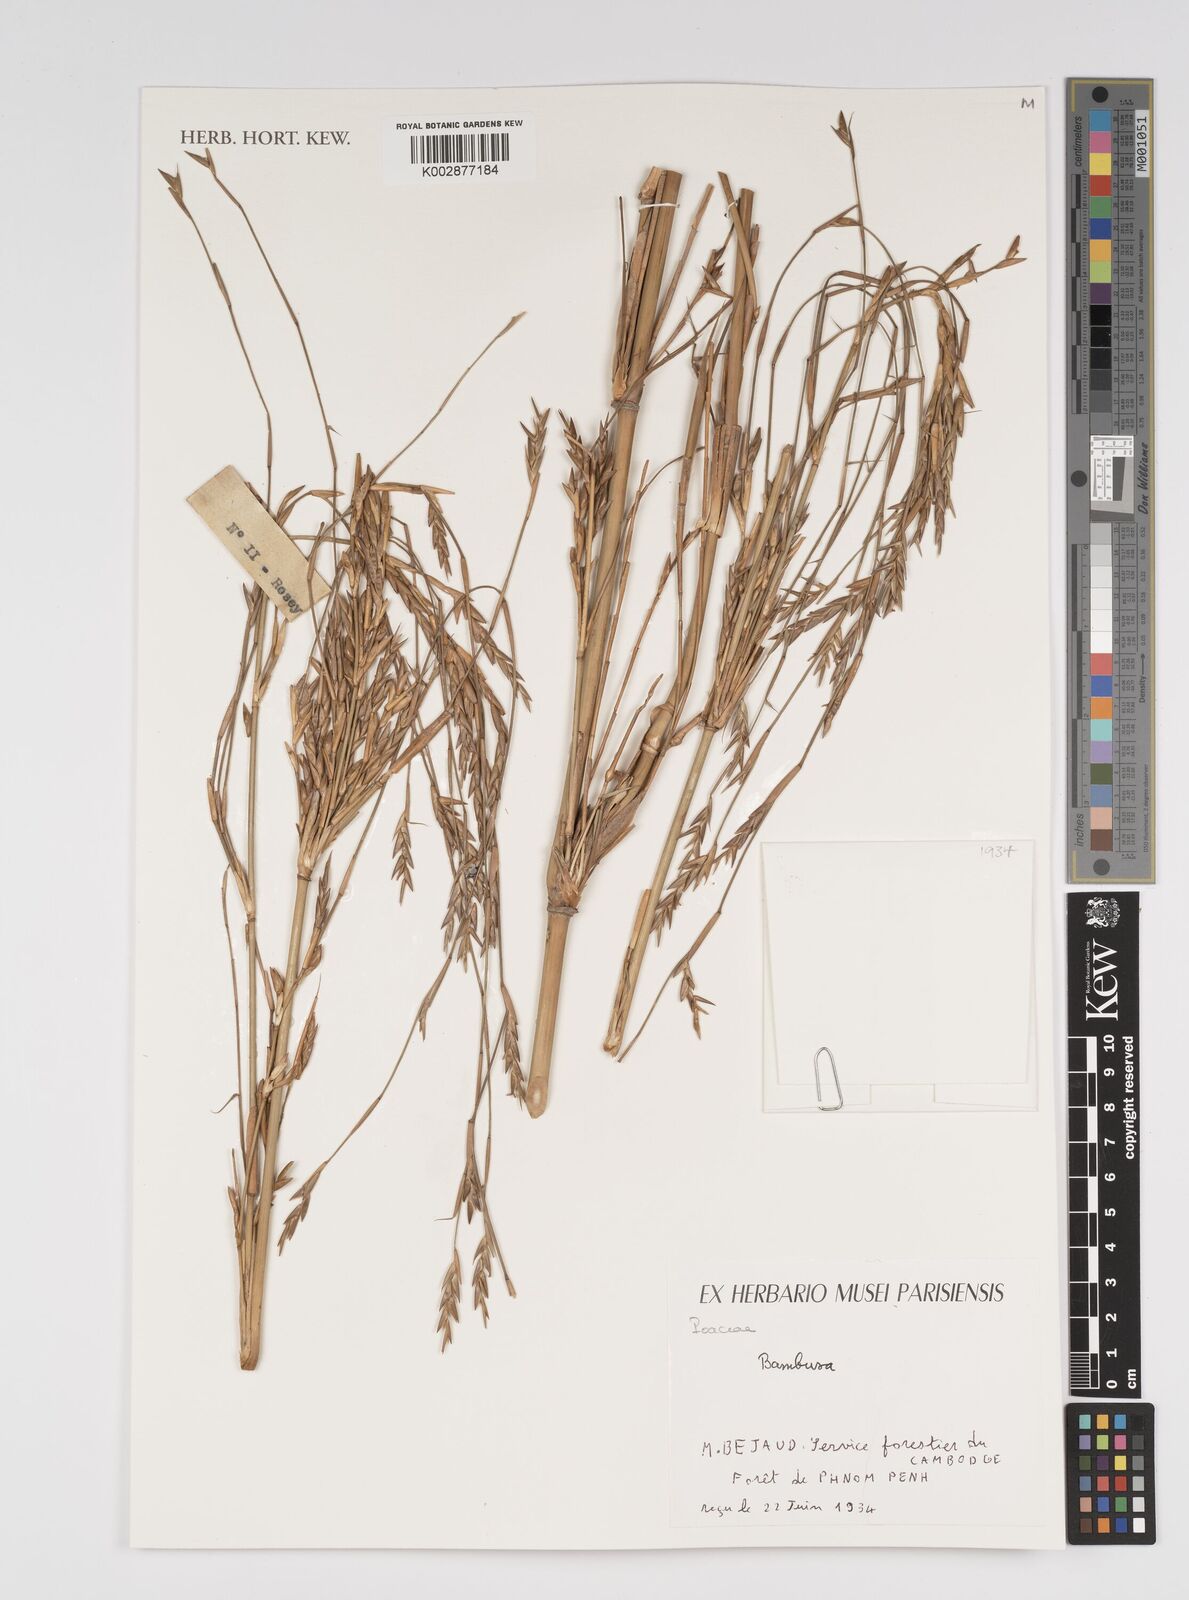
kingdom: Plantae
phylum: Tracheophyta
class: Liliopsida
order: Poales
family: Poaceae
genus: Bambusa
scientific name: Bambusa
